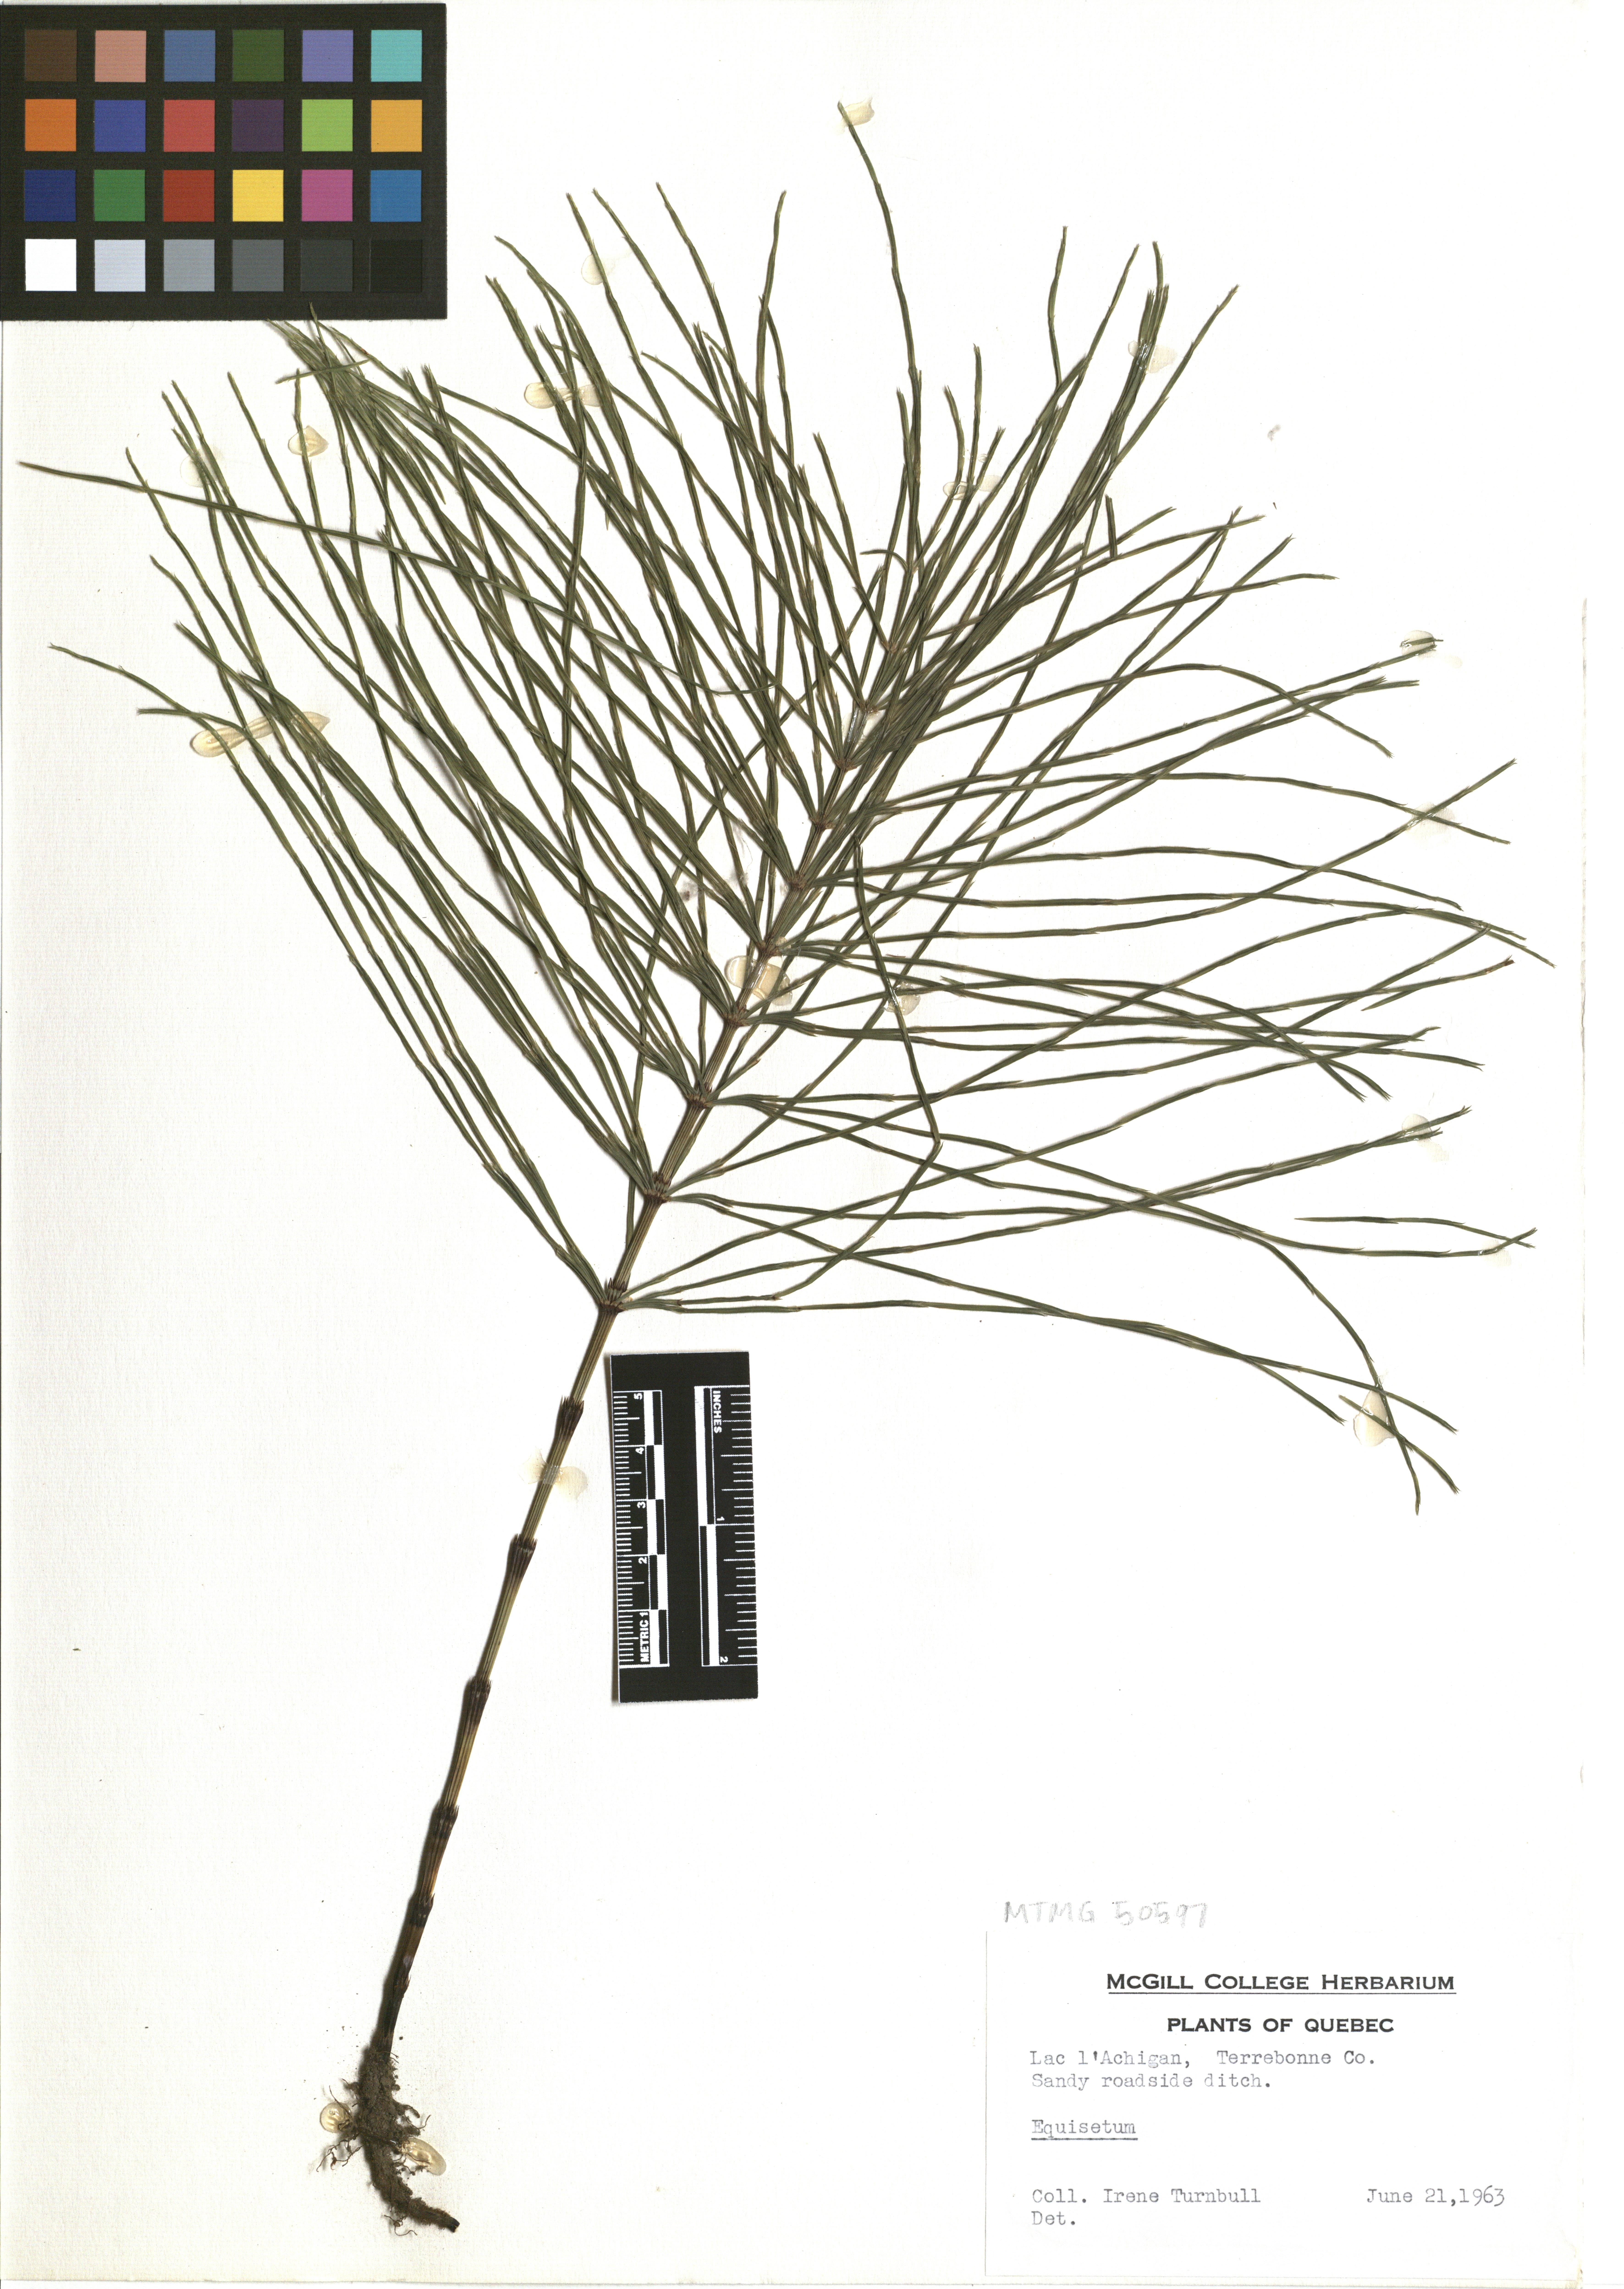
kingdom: Plantae
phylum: Tracheophyta
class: Polypodiopsida
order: Equisetales
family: Equisetaceae
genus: Equisetum
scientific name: Equisetum arvense
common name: Field horsetail
